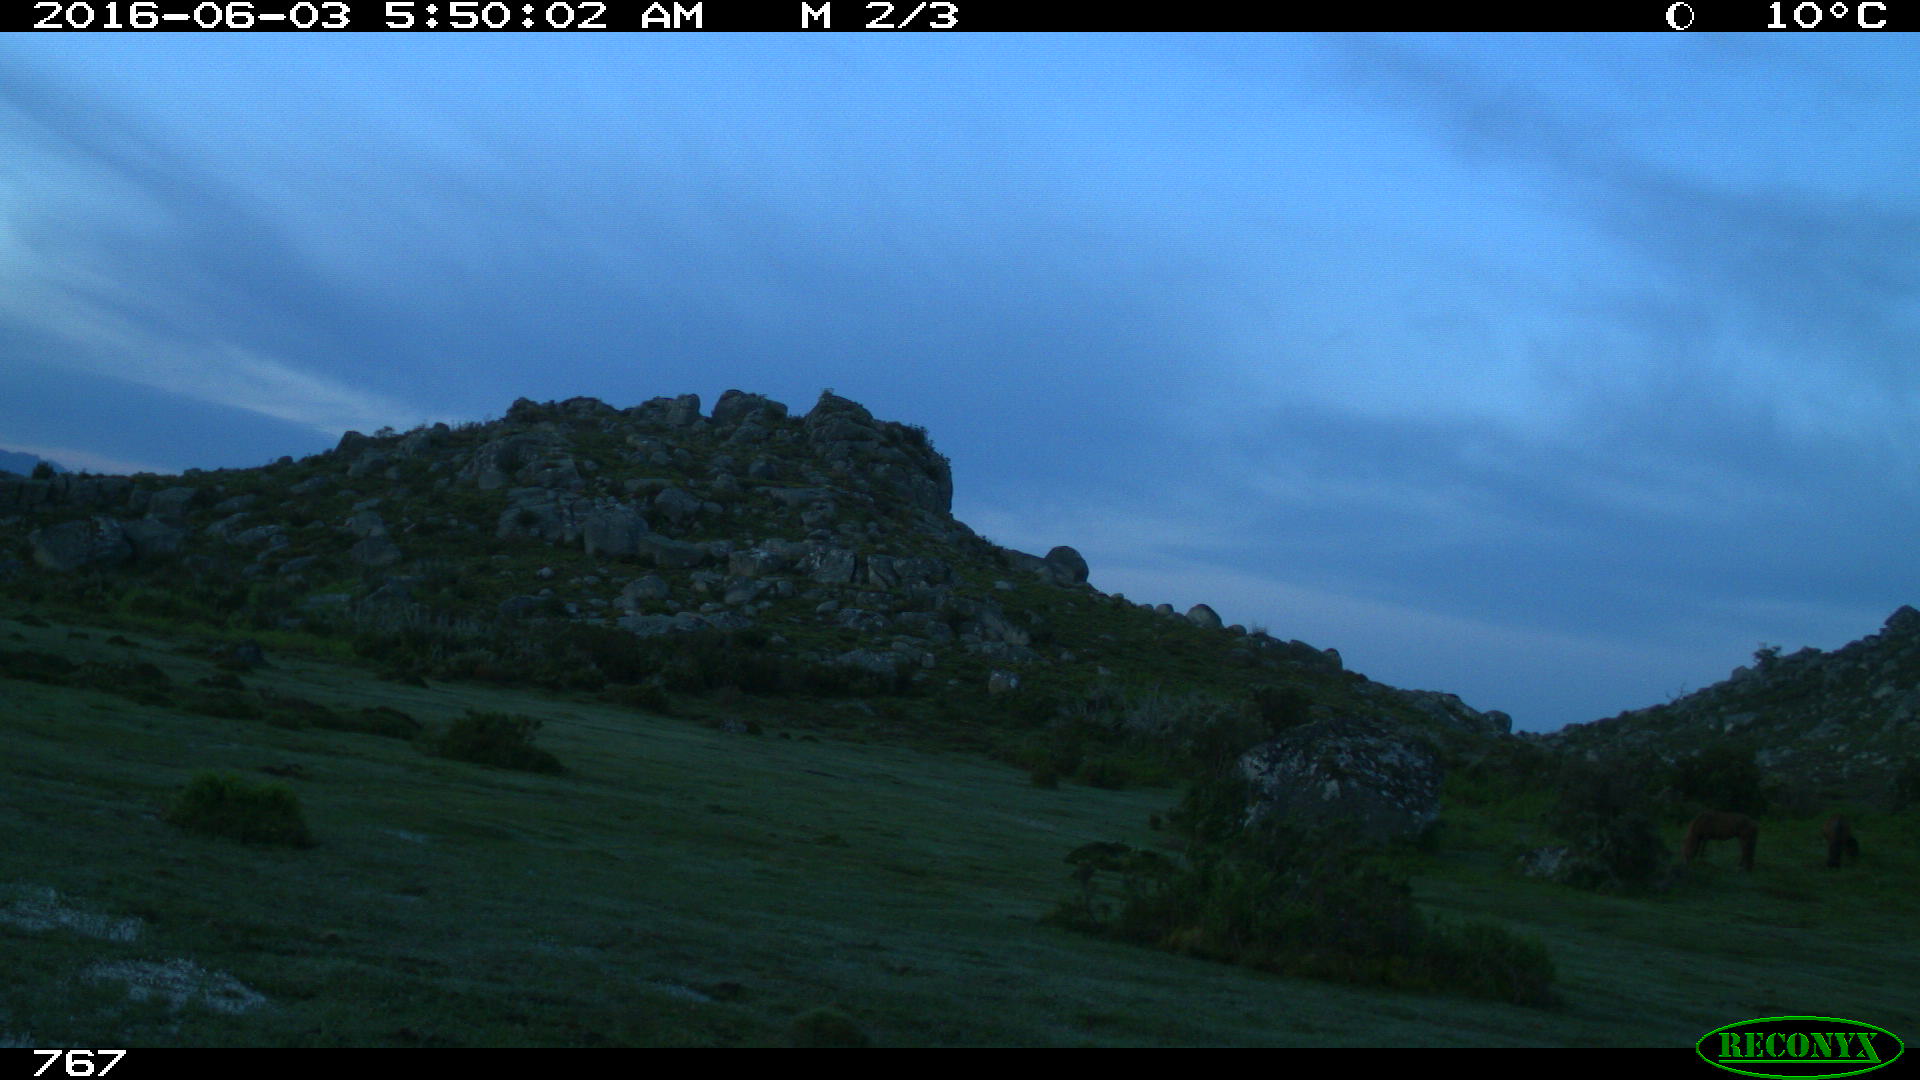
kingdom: Animalia
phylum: Chordata
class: Mammalia
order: Perissodactyla
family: Equidae
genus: Equus
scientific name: Equus caballus
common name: Horse
